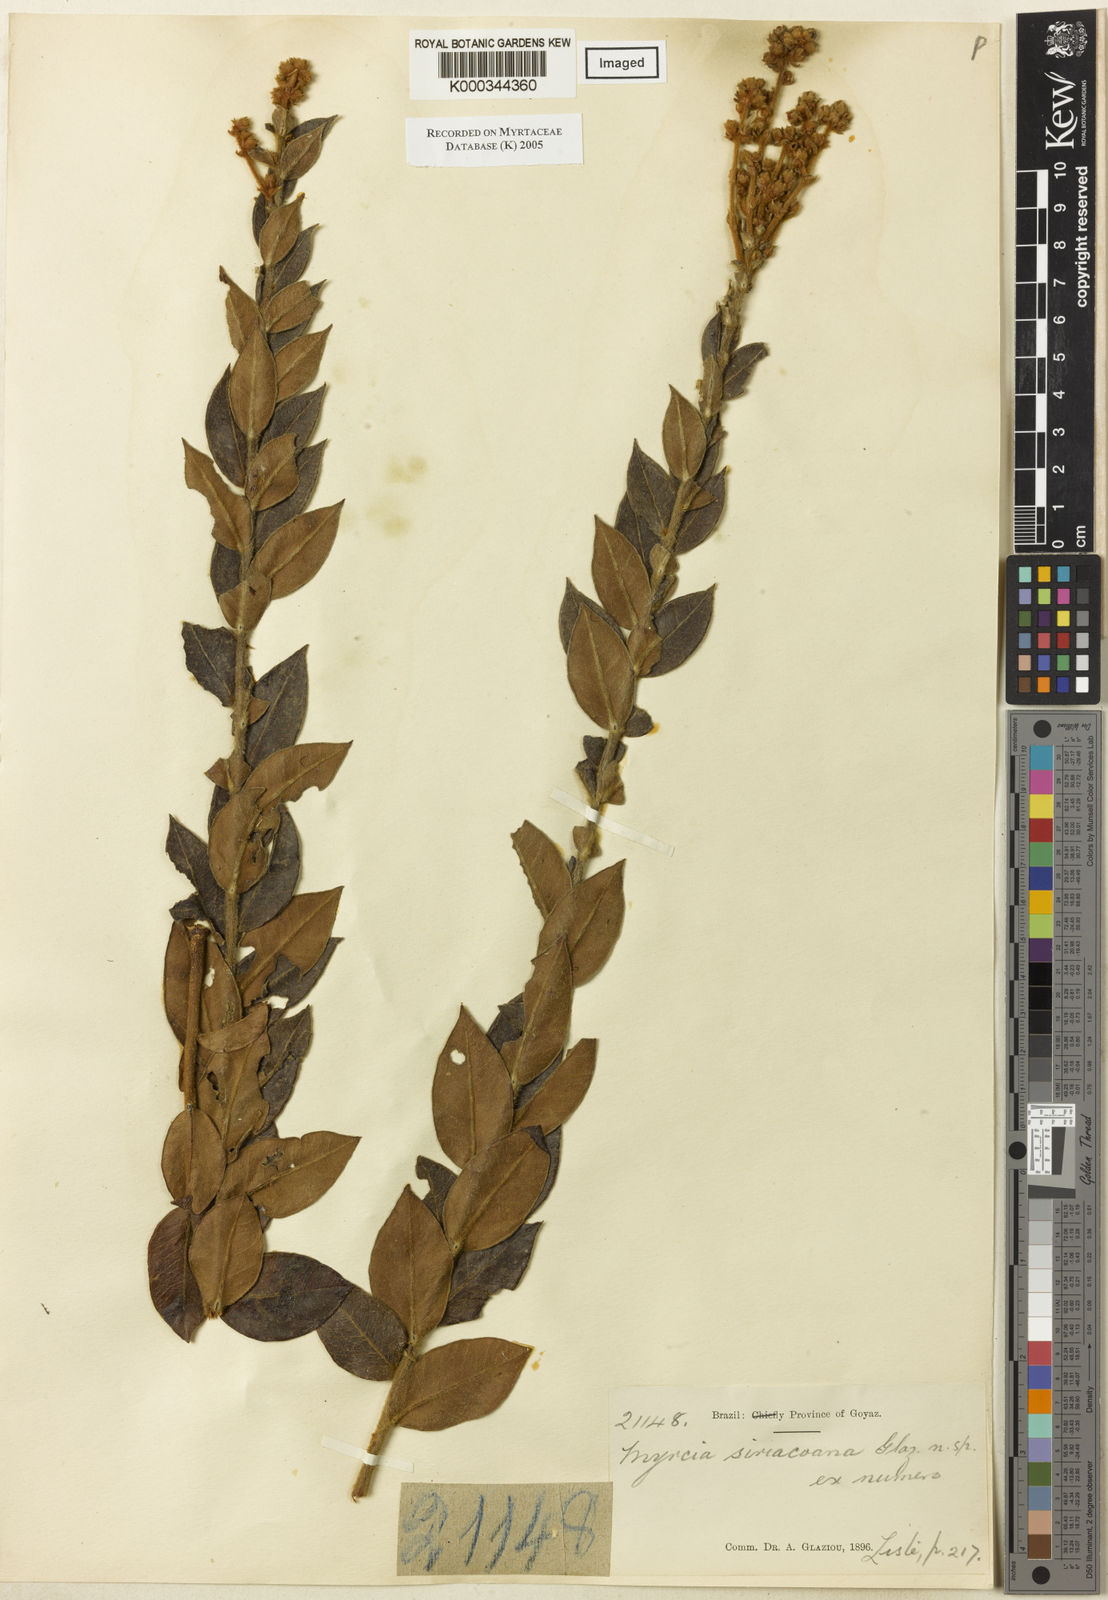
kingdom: Plantae
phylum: Tracheophyta
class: Magnoliopsida
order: Myrtales
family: Myrtaceae
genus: Myrcia
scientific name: Myrcia
